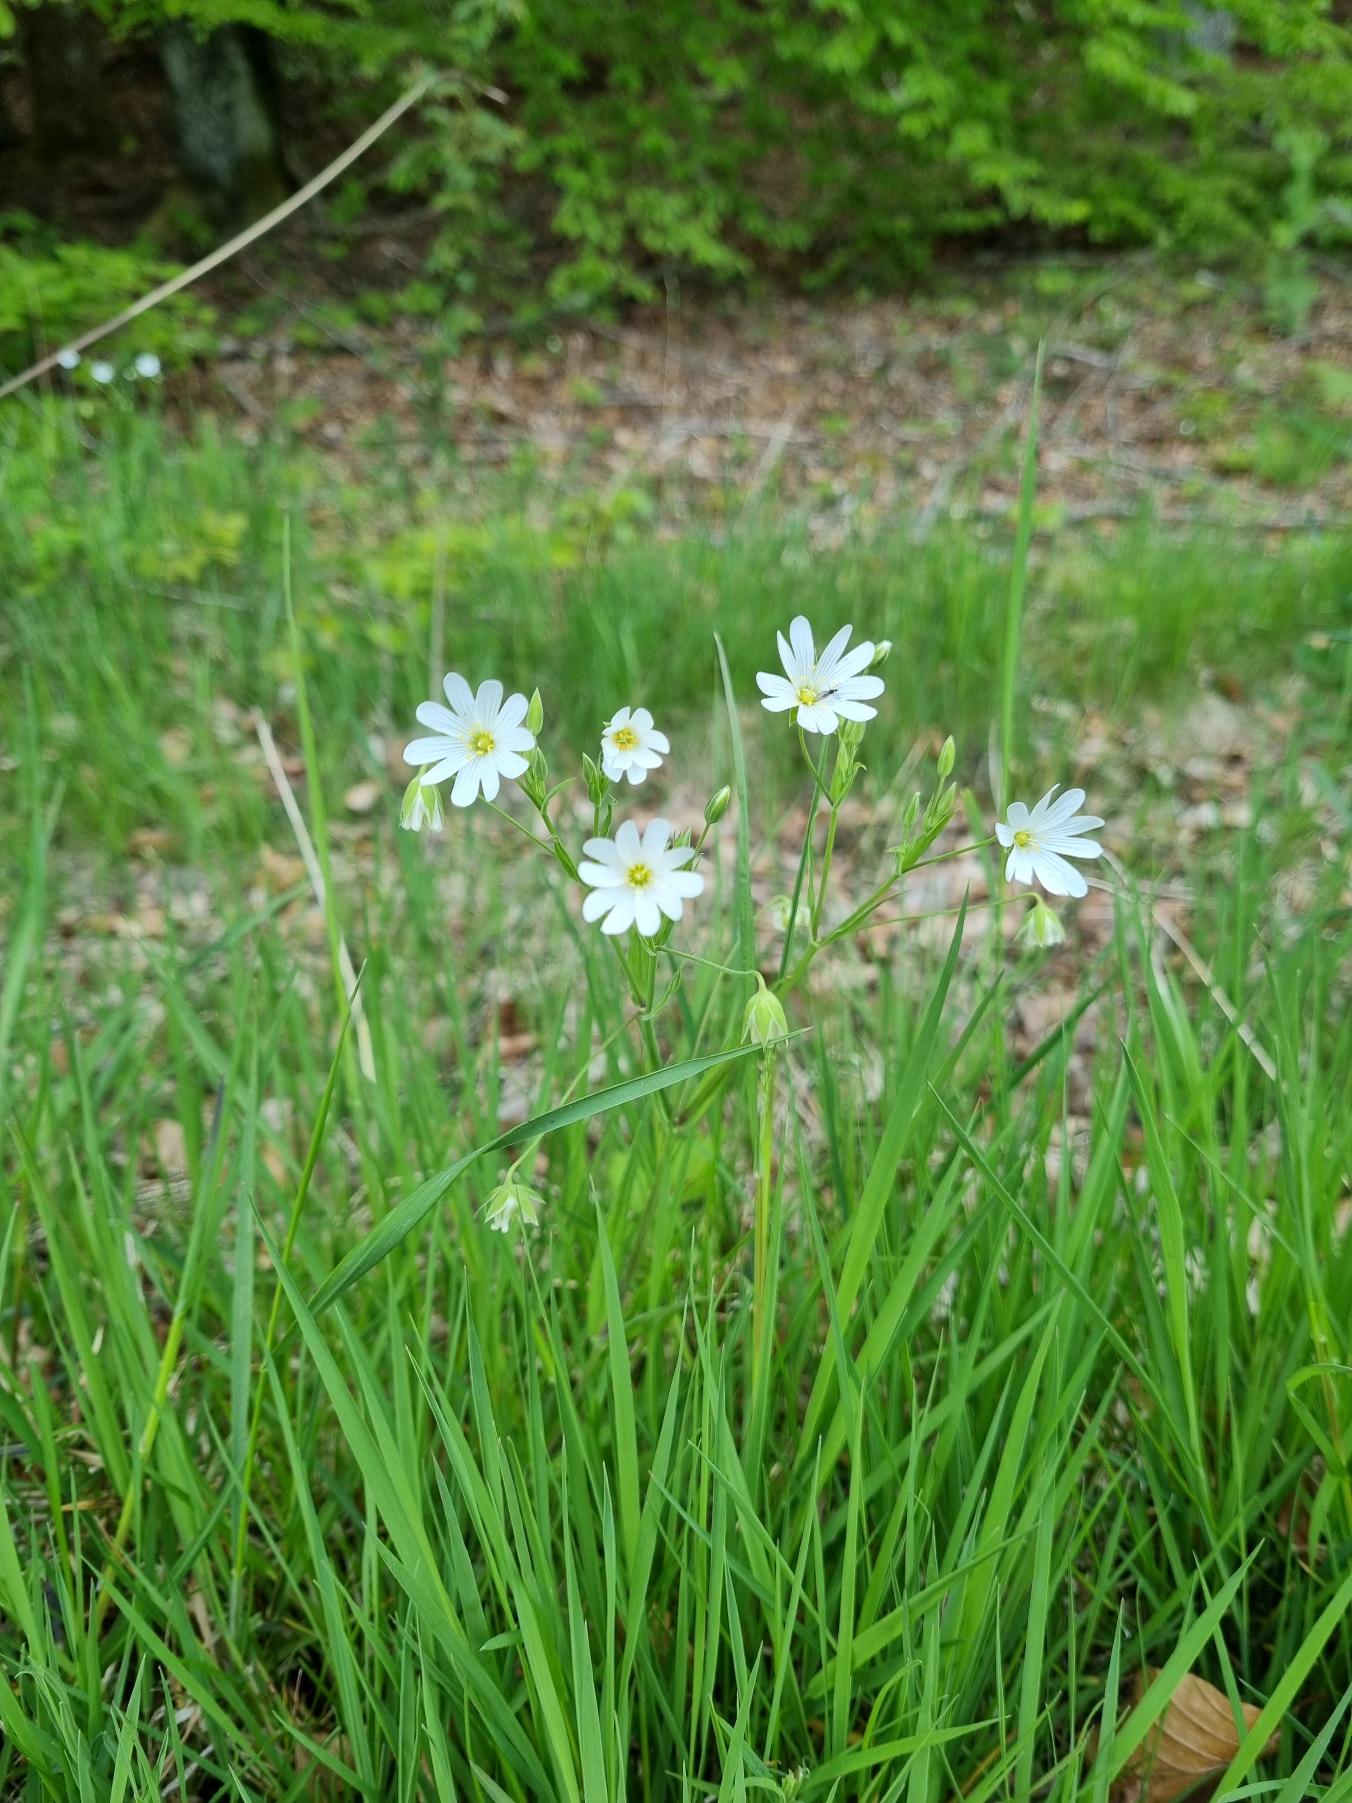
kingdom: Plantae
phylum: Tracheophyta
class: Magnoliopsida
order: Caryophyllales
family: Caryophyllaceae
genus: Rabelera
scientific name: Rabelera holostea
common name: Stor fladstjerne
